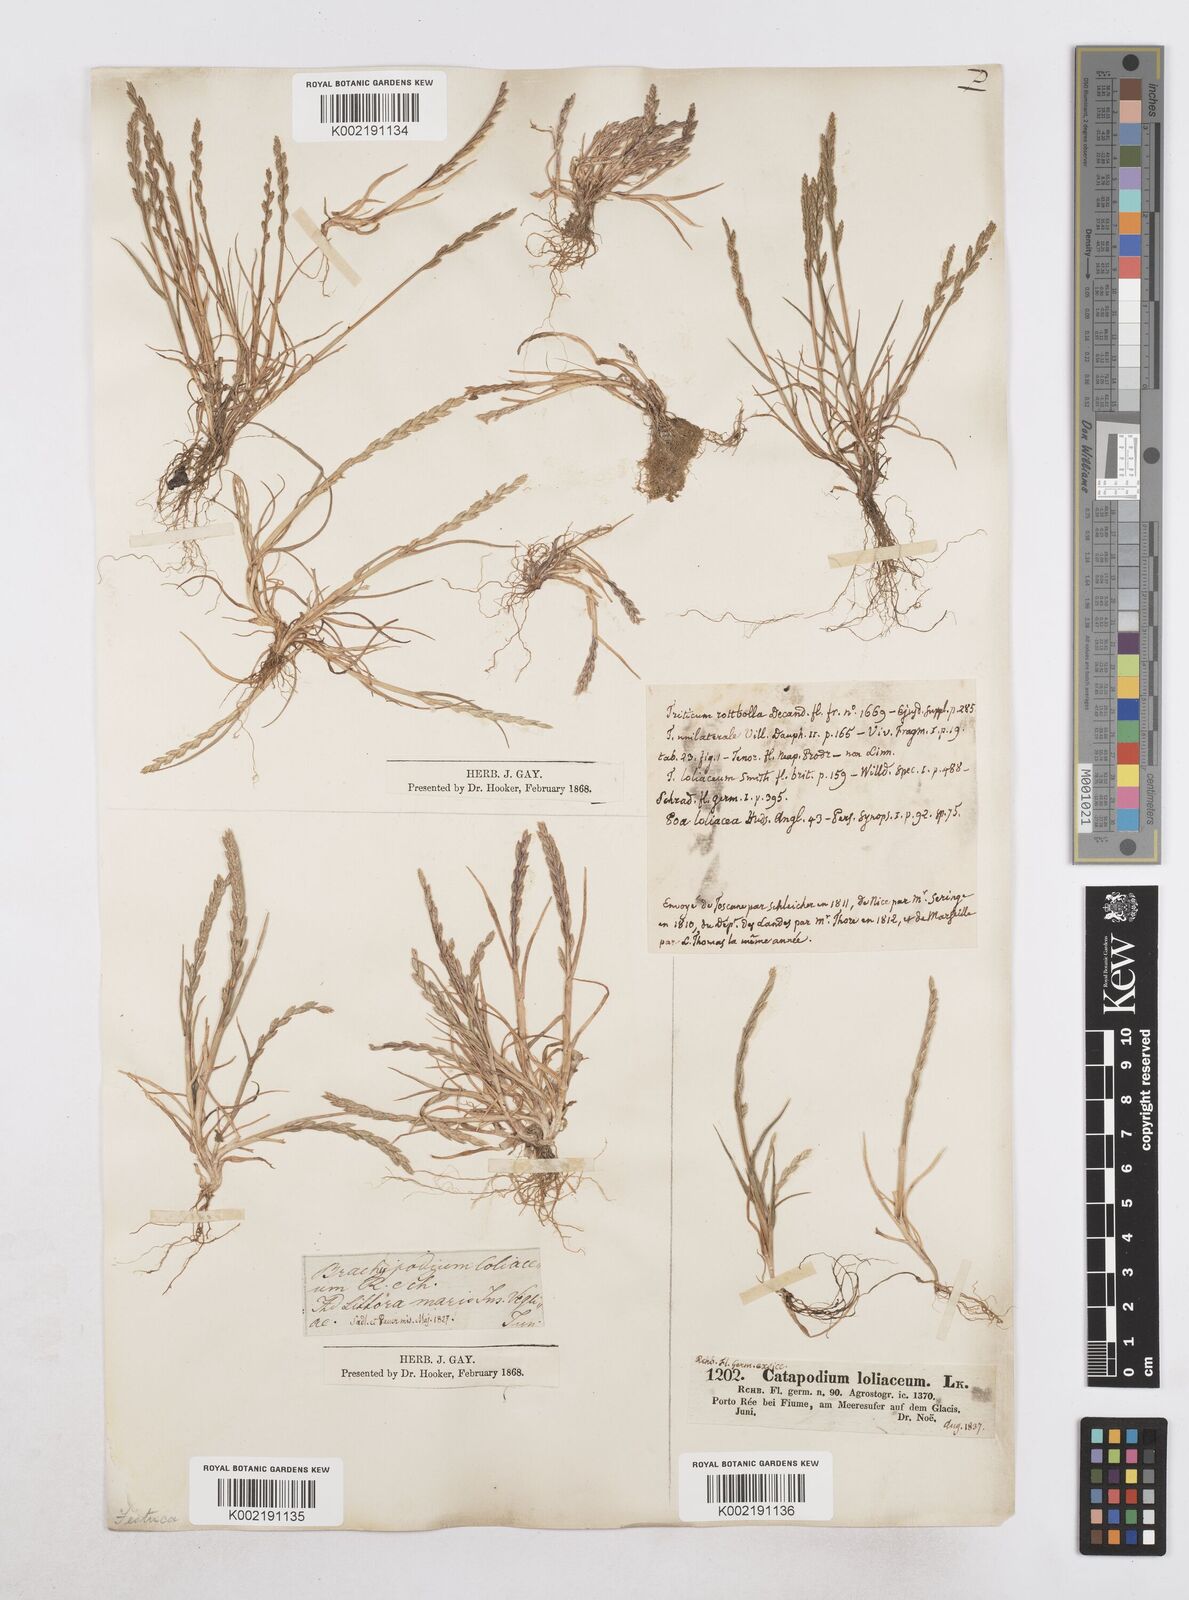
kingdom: Plantae
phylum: Tracheophyta
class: Liliopsida
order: Poales
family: Poaceae
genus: Catapodium
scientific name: Catapodium marinum
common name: Sea fern-grass
